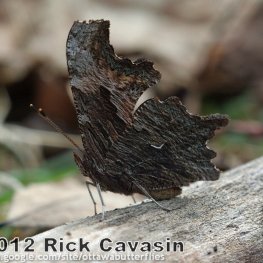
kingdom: Animalia
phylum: Arthropoda
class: Insecta
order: Lepidoptera
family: Nymphalidae
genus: Polygonia
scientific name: Polygonia progne
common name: Gray Comma
